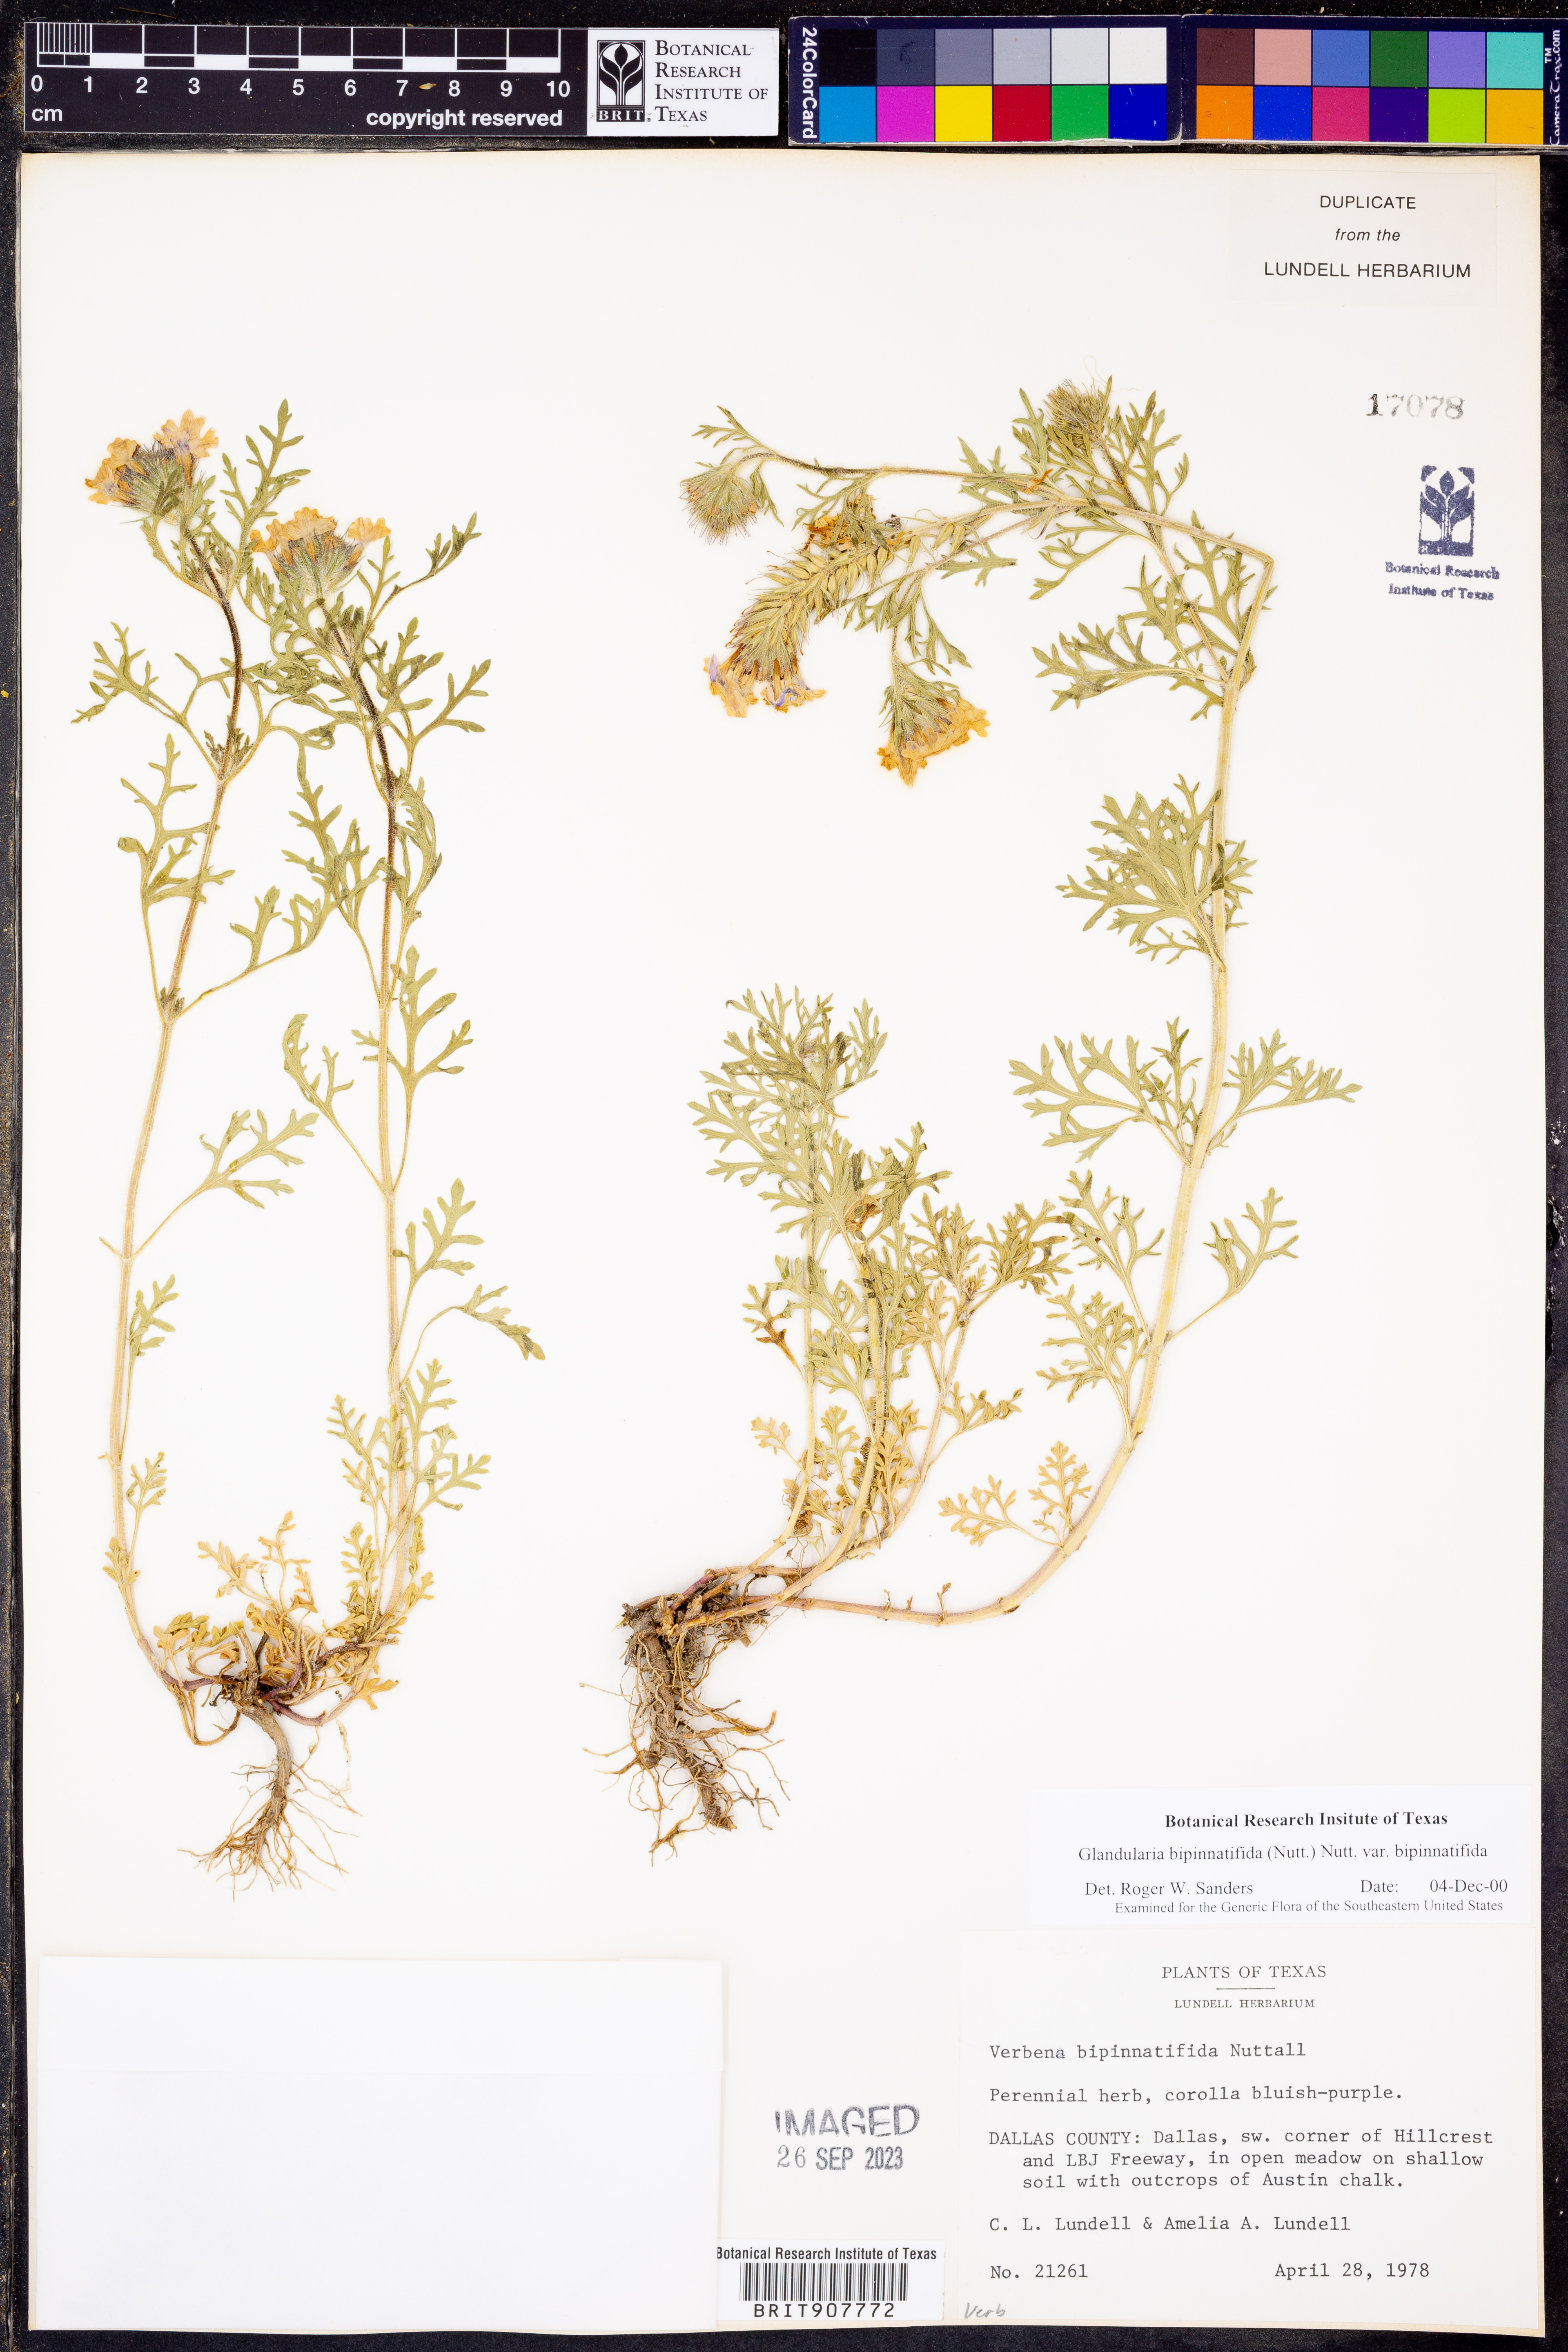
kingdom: Plantae
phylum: Tracheophyta
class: Magnoliopsida
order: Lamiales
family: Verbenaceae
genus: Verbena
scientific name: Verbena bipinnatifida
